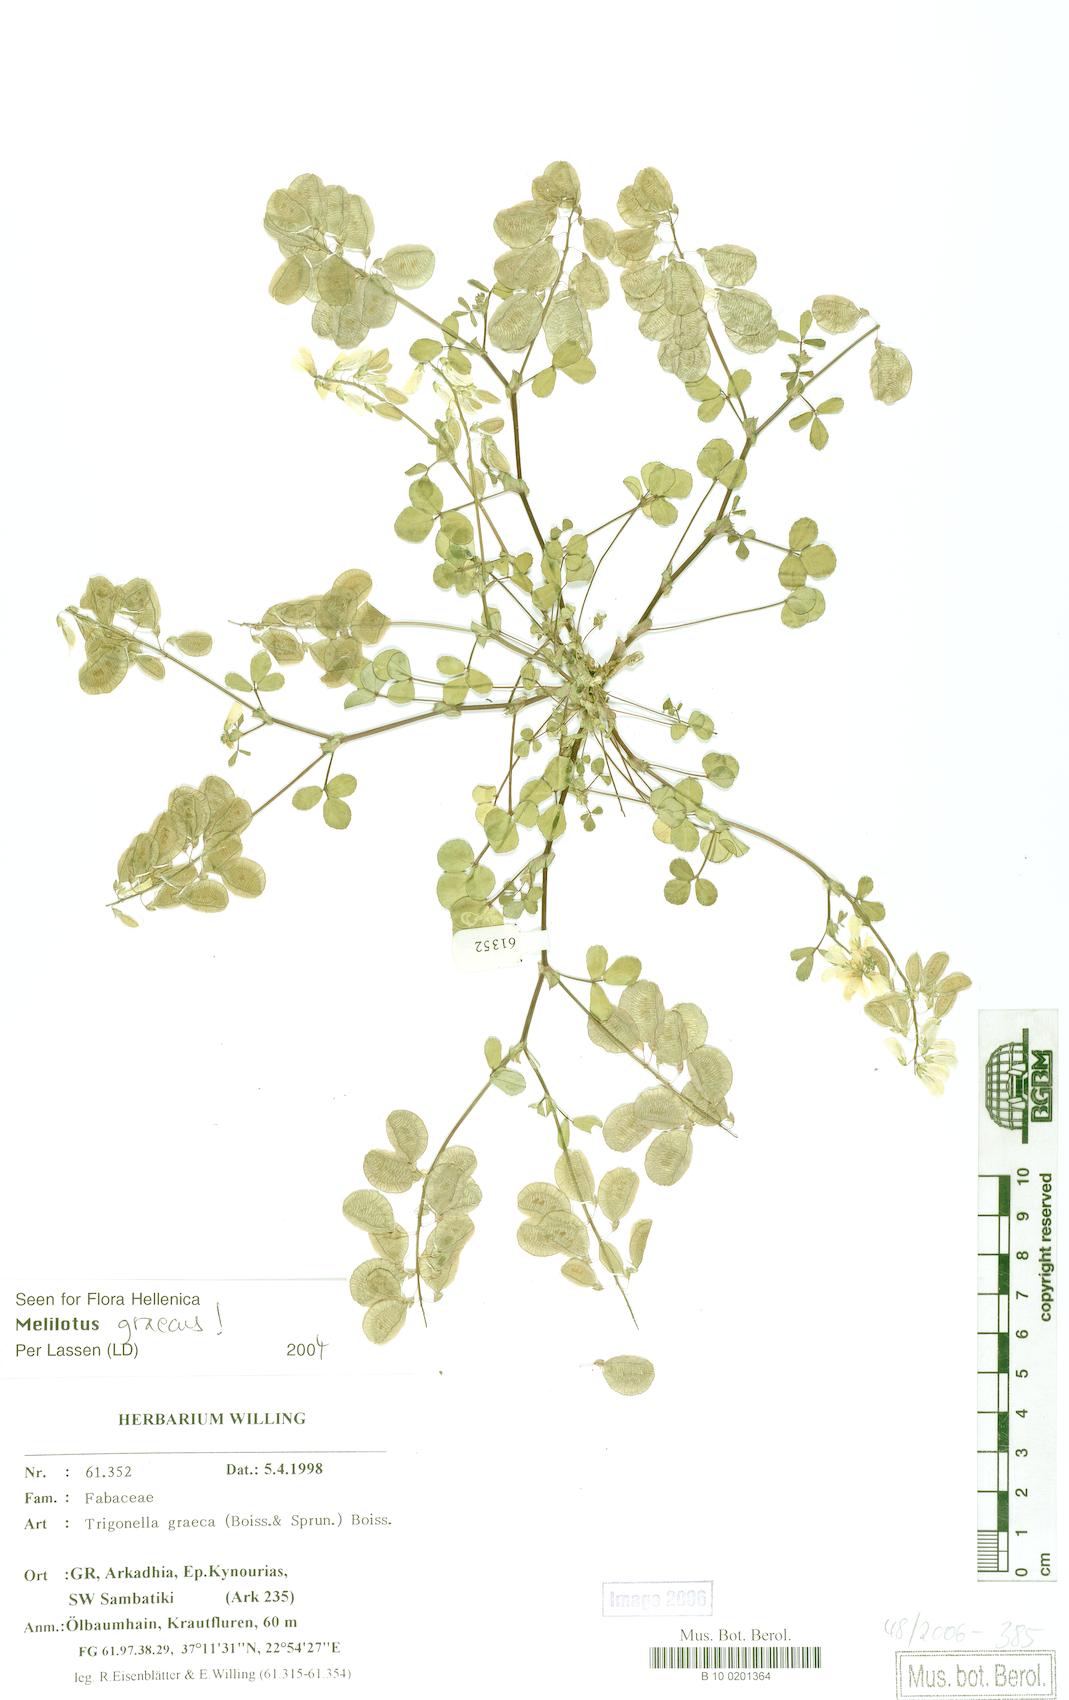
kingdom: Plantae
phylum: Tracheophyta
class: Magnoliopsida
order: Fabales
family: Fabaceae
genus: Trigonella
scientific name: Trigonella graeca
